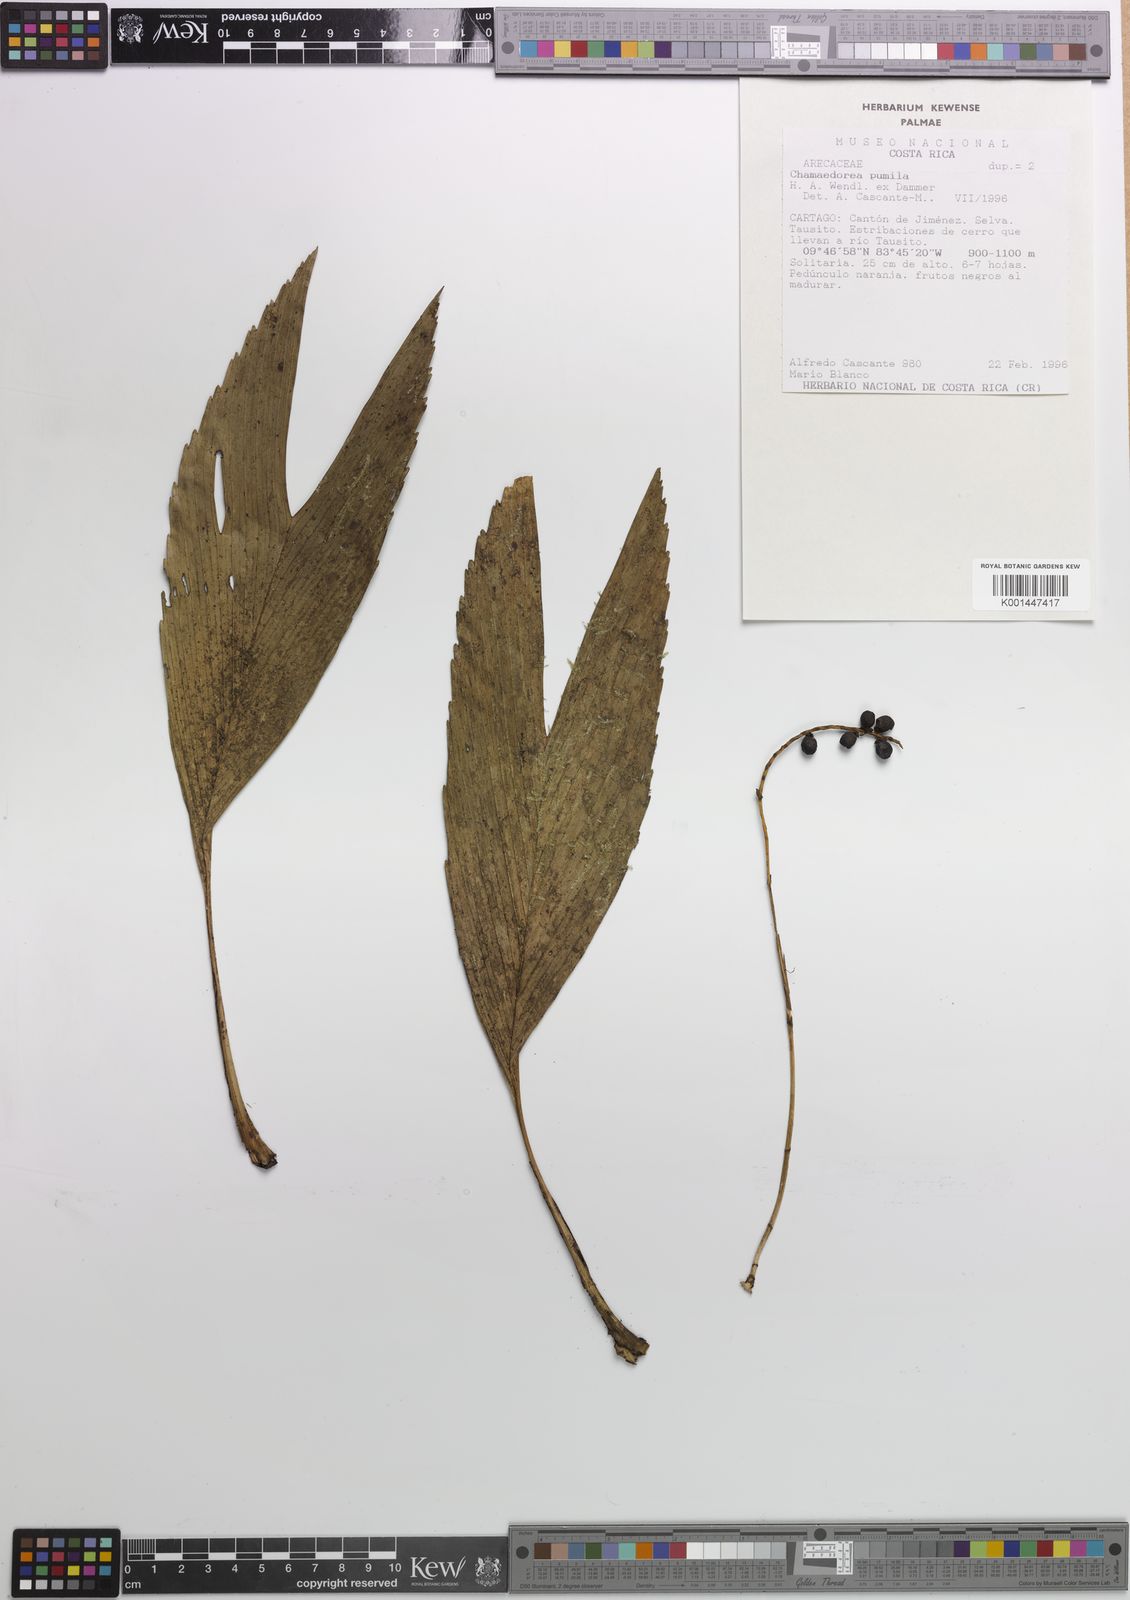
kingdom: Plantae
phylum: Tracheophyta
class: Liliopsida
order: Arecales
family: Arecaceae
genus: Chamaedorea
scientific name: Chamaedorea pumila
